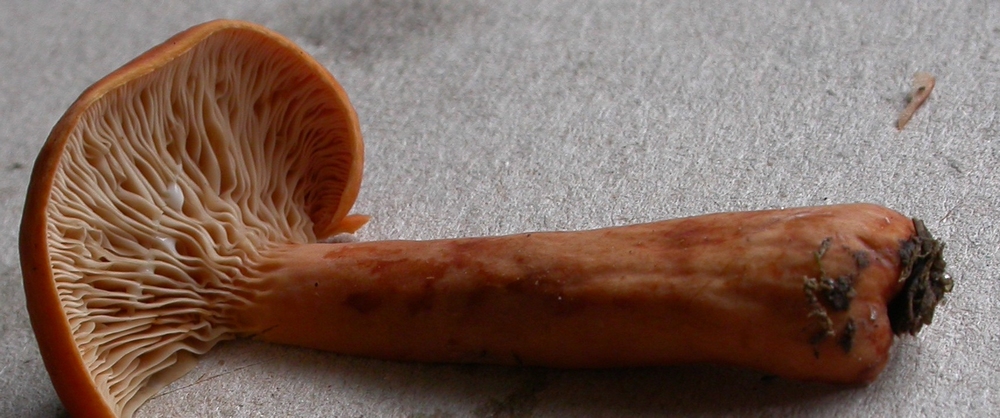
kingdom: Fungi
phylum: Basidiomycota
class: Agaricomycetes
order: Russulales
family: Russulaceae
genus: Lactarius
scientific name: Lactarius aurantiacus
